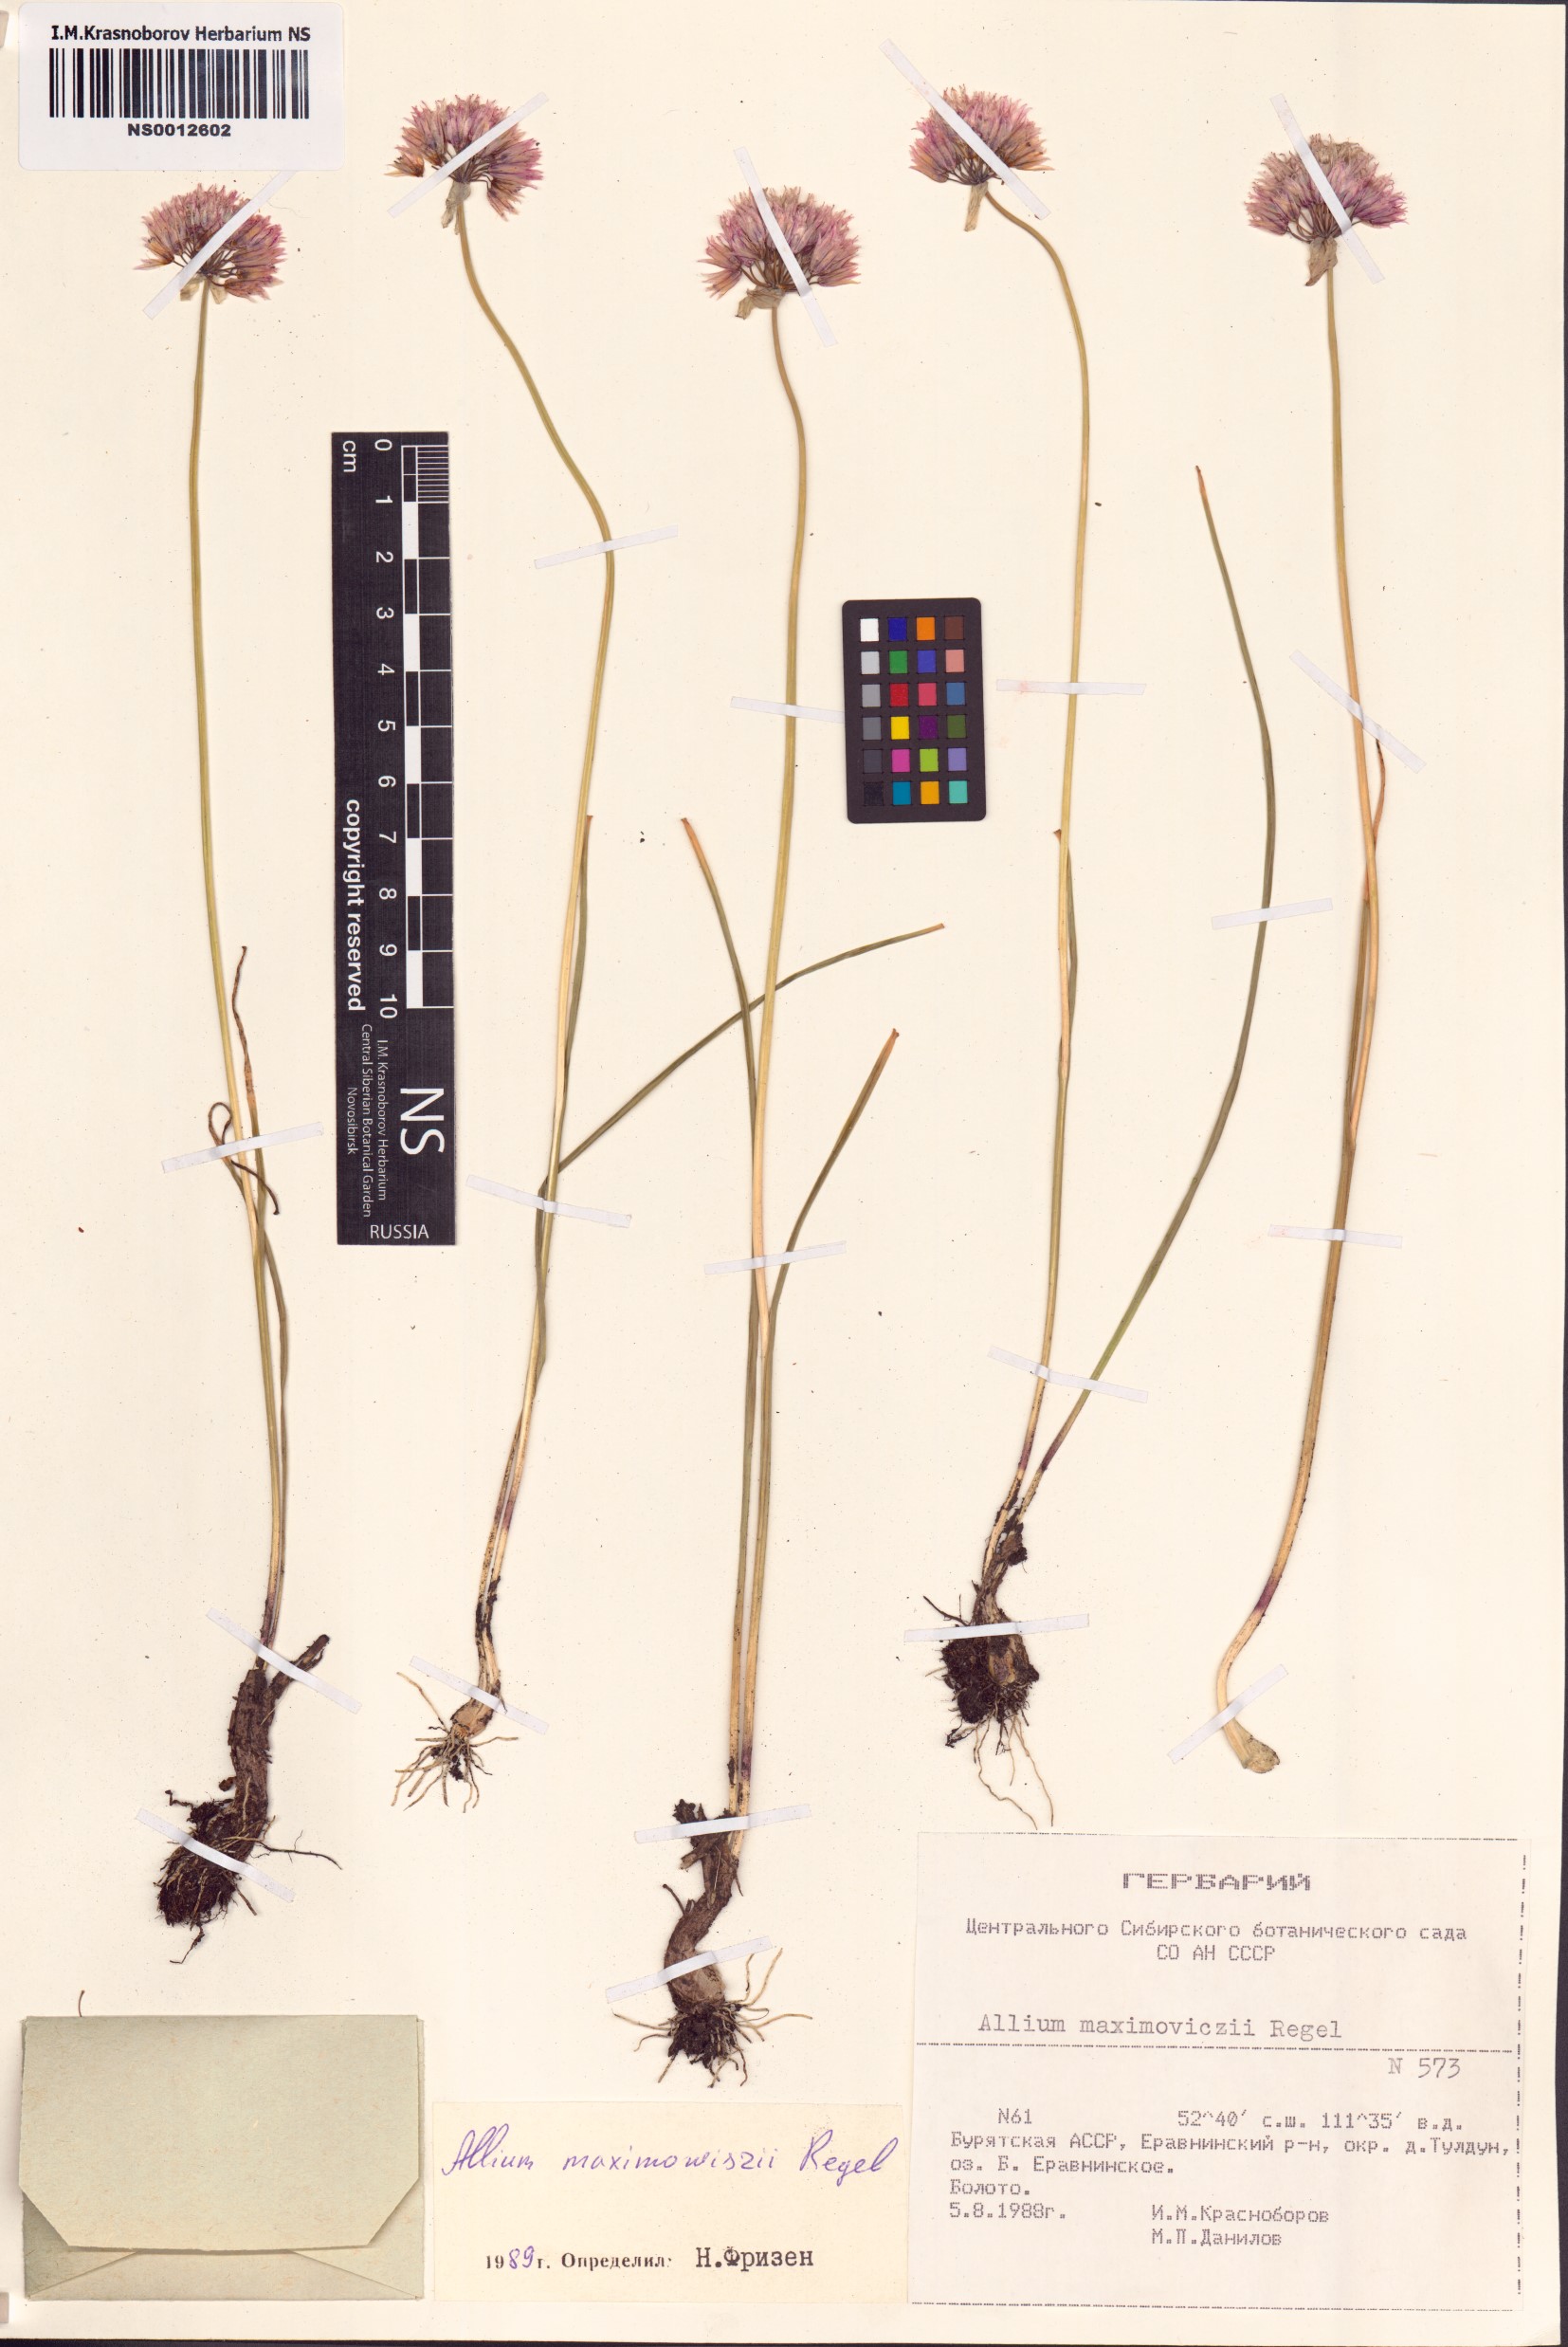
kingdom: Plantae
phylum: Tracheophyta
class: Liliopsida
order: Asparagales
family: Amaryllidaceae
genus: Allium
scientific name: Allium maximowiczii
